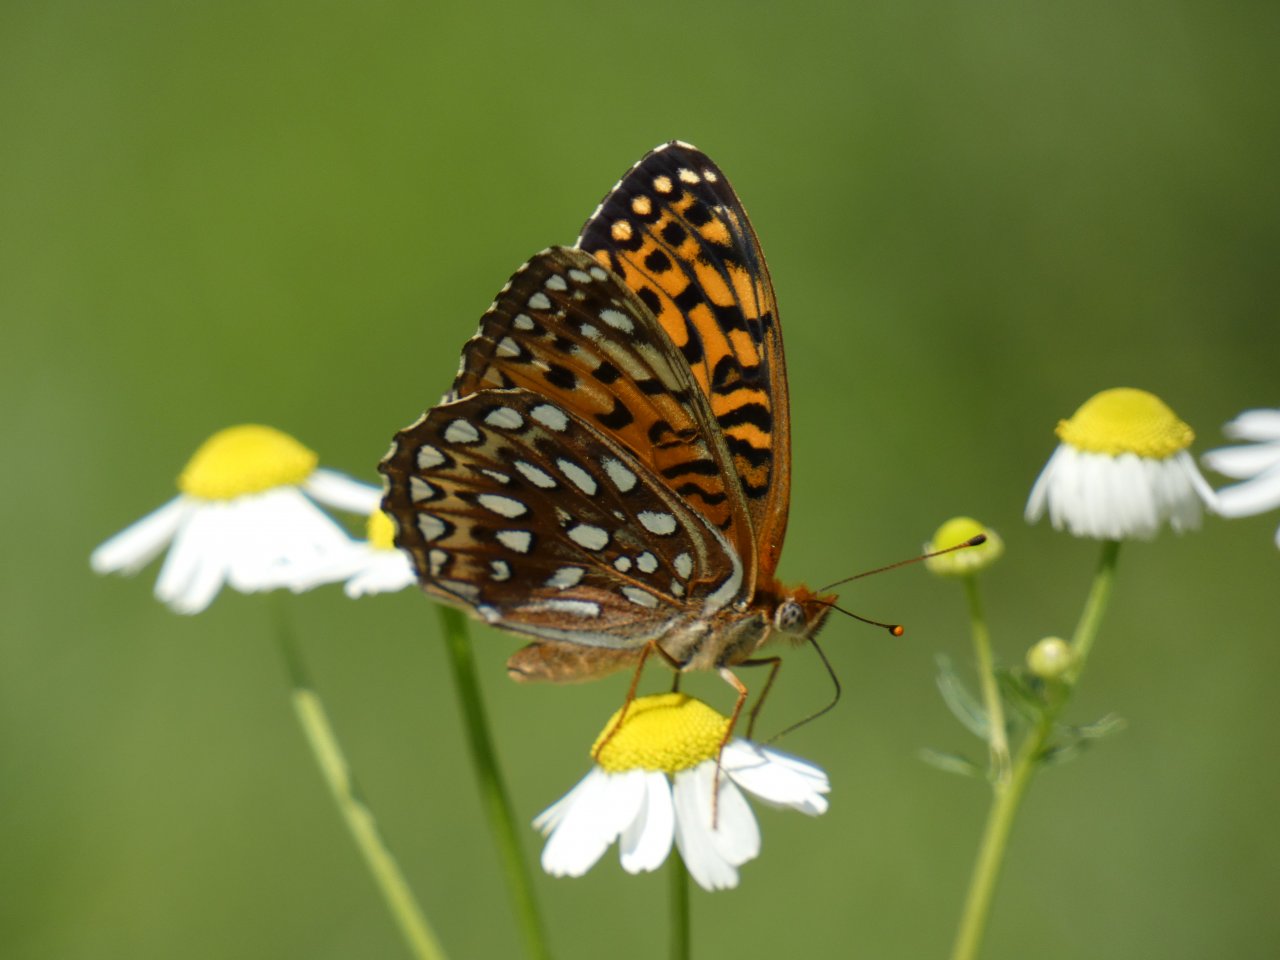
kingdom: Animalia
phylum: Arthropoda
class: Insecta
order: Lepidoptera
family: Nymphalidae
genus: Speyeria
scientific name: Speyeria atlantis
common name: Atlantis Fritillary
